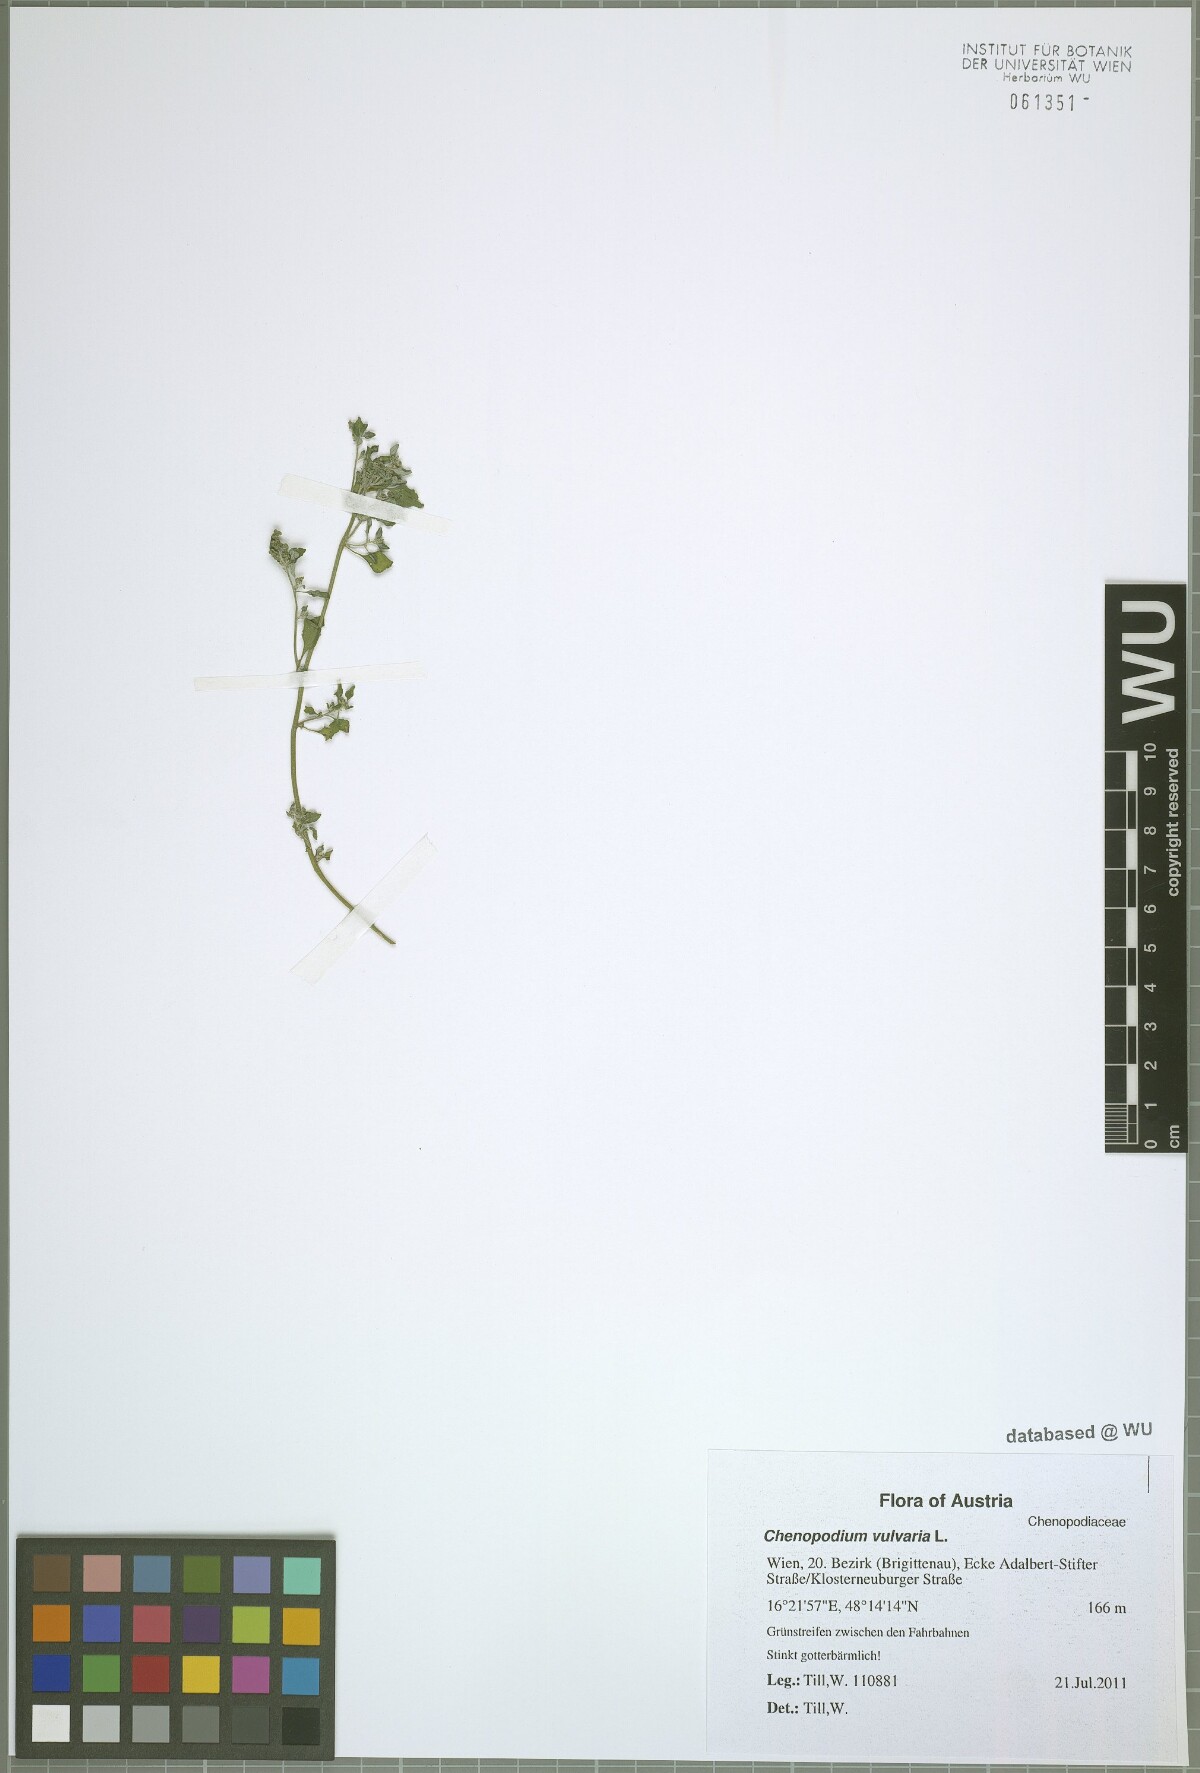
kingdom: Plantae
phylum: Tracheophyta
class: Magnoliopsida
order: Caryophyllales
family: Amaranthaceae
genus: Chenopodium
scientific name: Chenopodium vulvaria
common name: Stinking goosefoot
